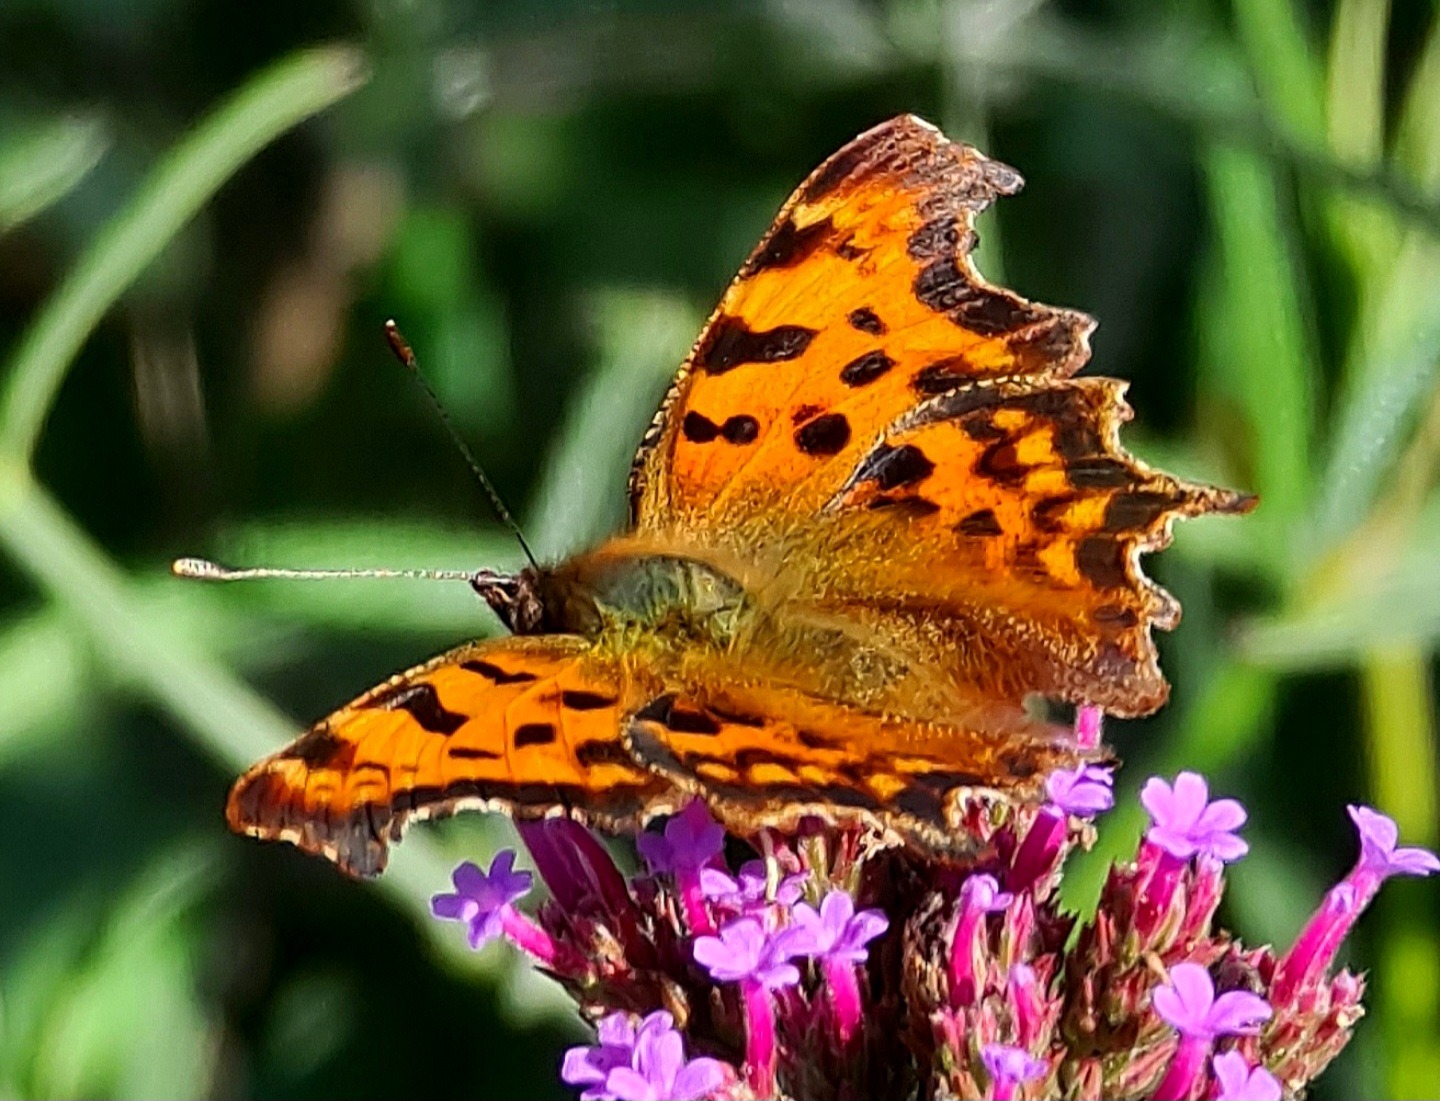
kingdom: Animalia
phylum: Arthropoda
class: Insecta
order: Lepidoptera
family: Nymphalidae
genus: Polygonia
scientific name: Polygonia c-album
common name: Det hvide C
